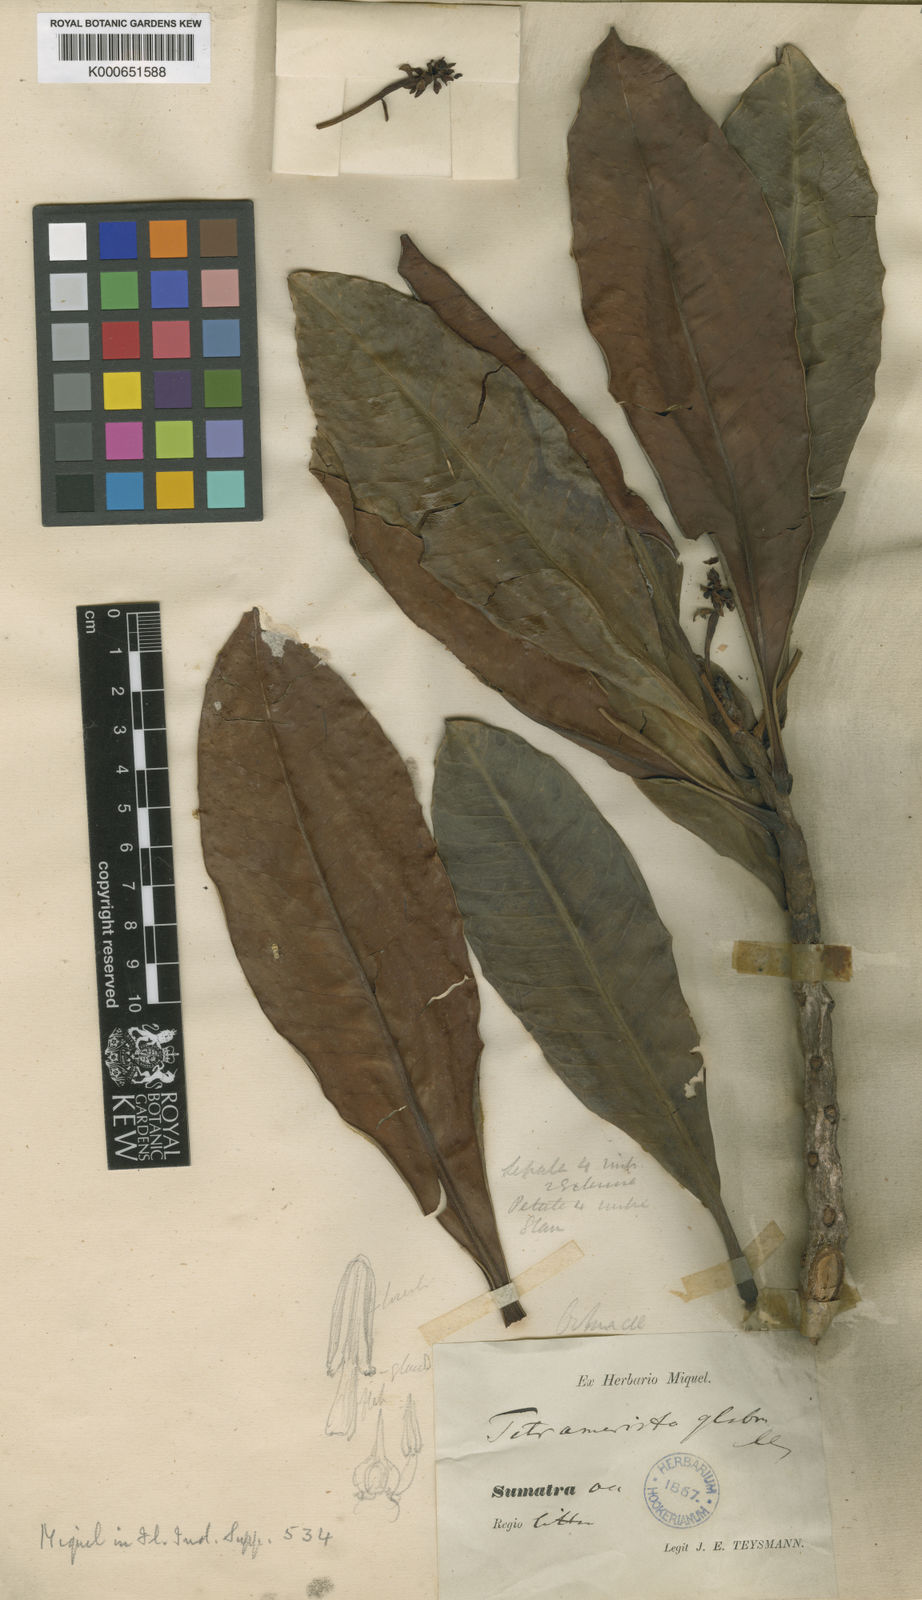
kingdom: Plantae
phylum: Tracheophyta
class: Magnoliopsida
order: Ericales
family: Tetrameristaceae
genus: Tetramerista
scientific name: Tetramerista glabra
